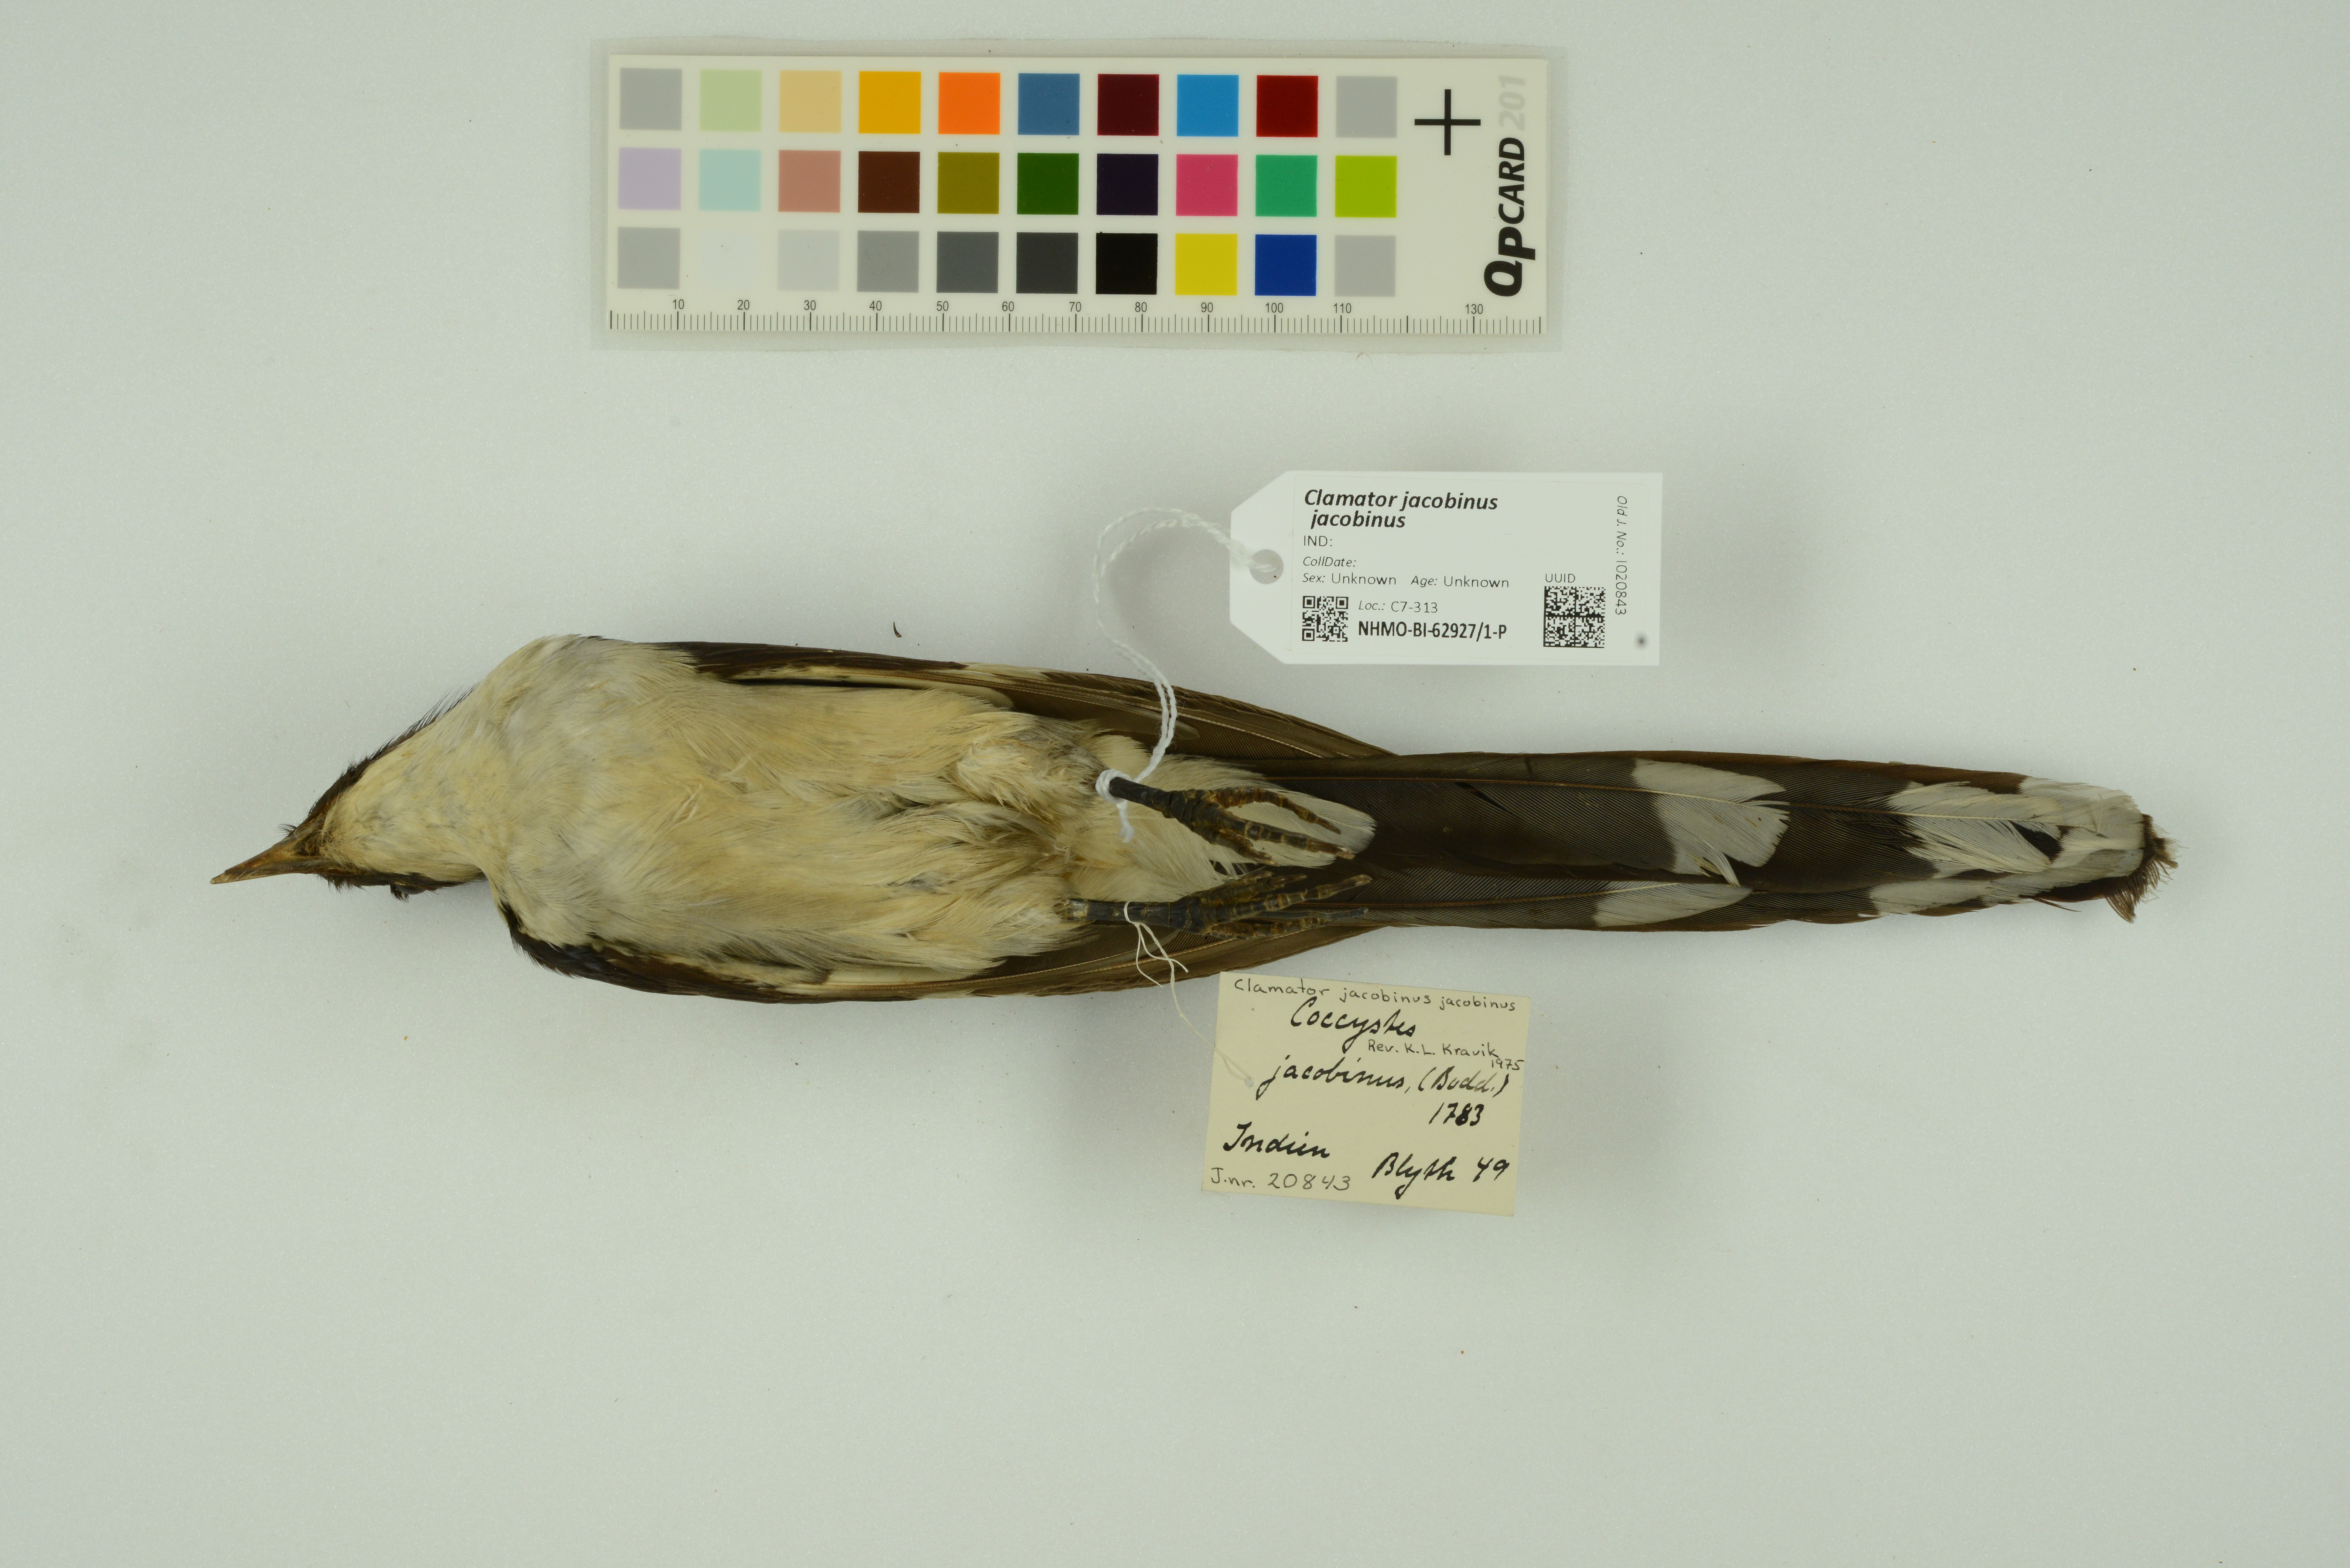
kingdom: Animalia
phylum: Chordata
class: Aves
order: Cuculiformes
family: Cuculidae
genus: Clamator
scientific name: Clamator jacobinus
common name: Jacobin cuckoo
